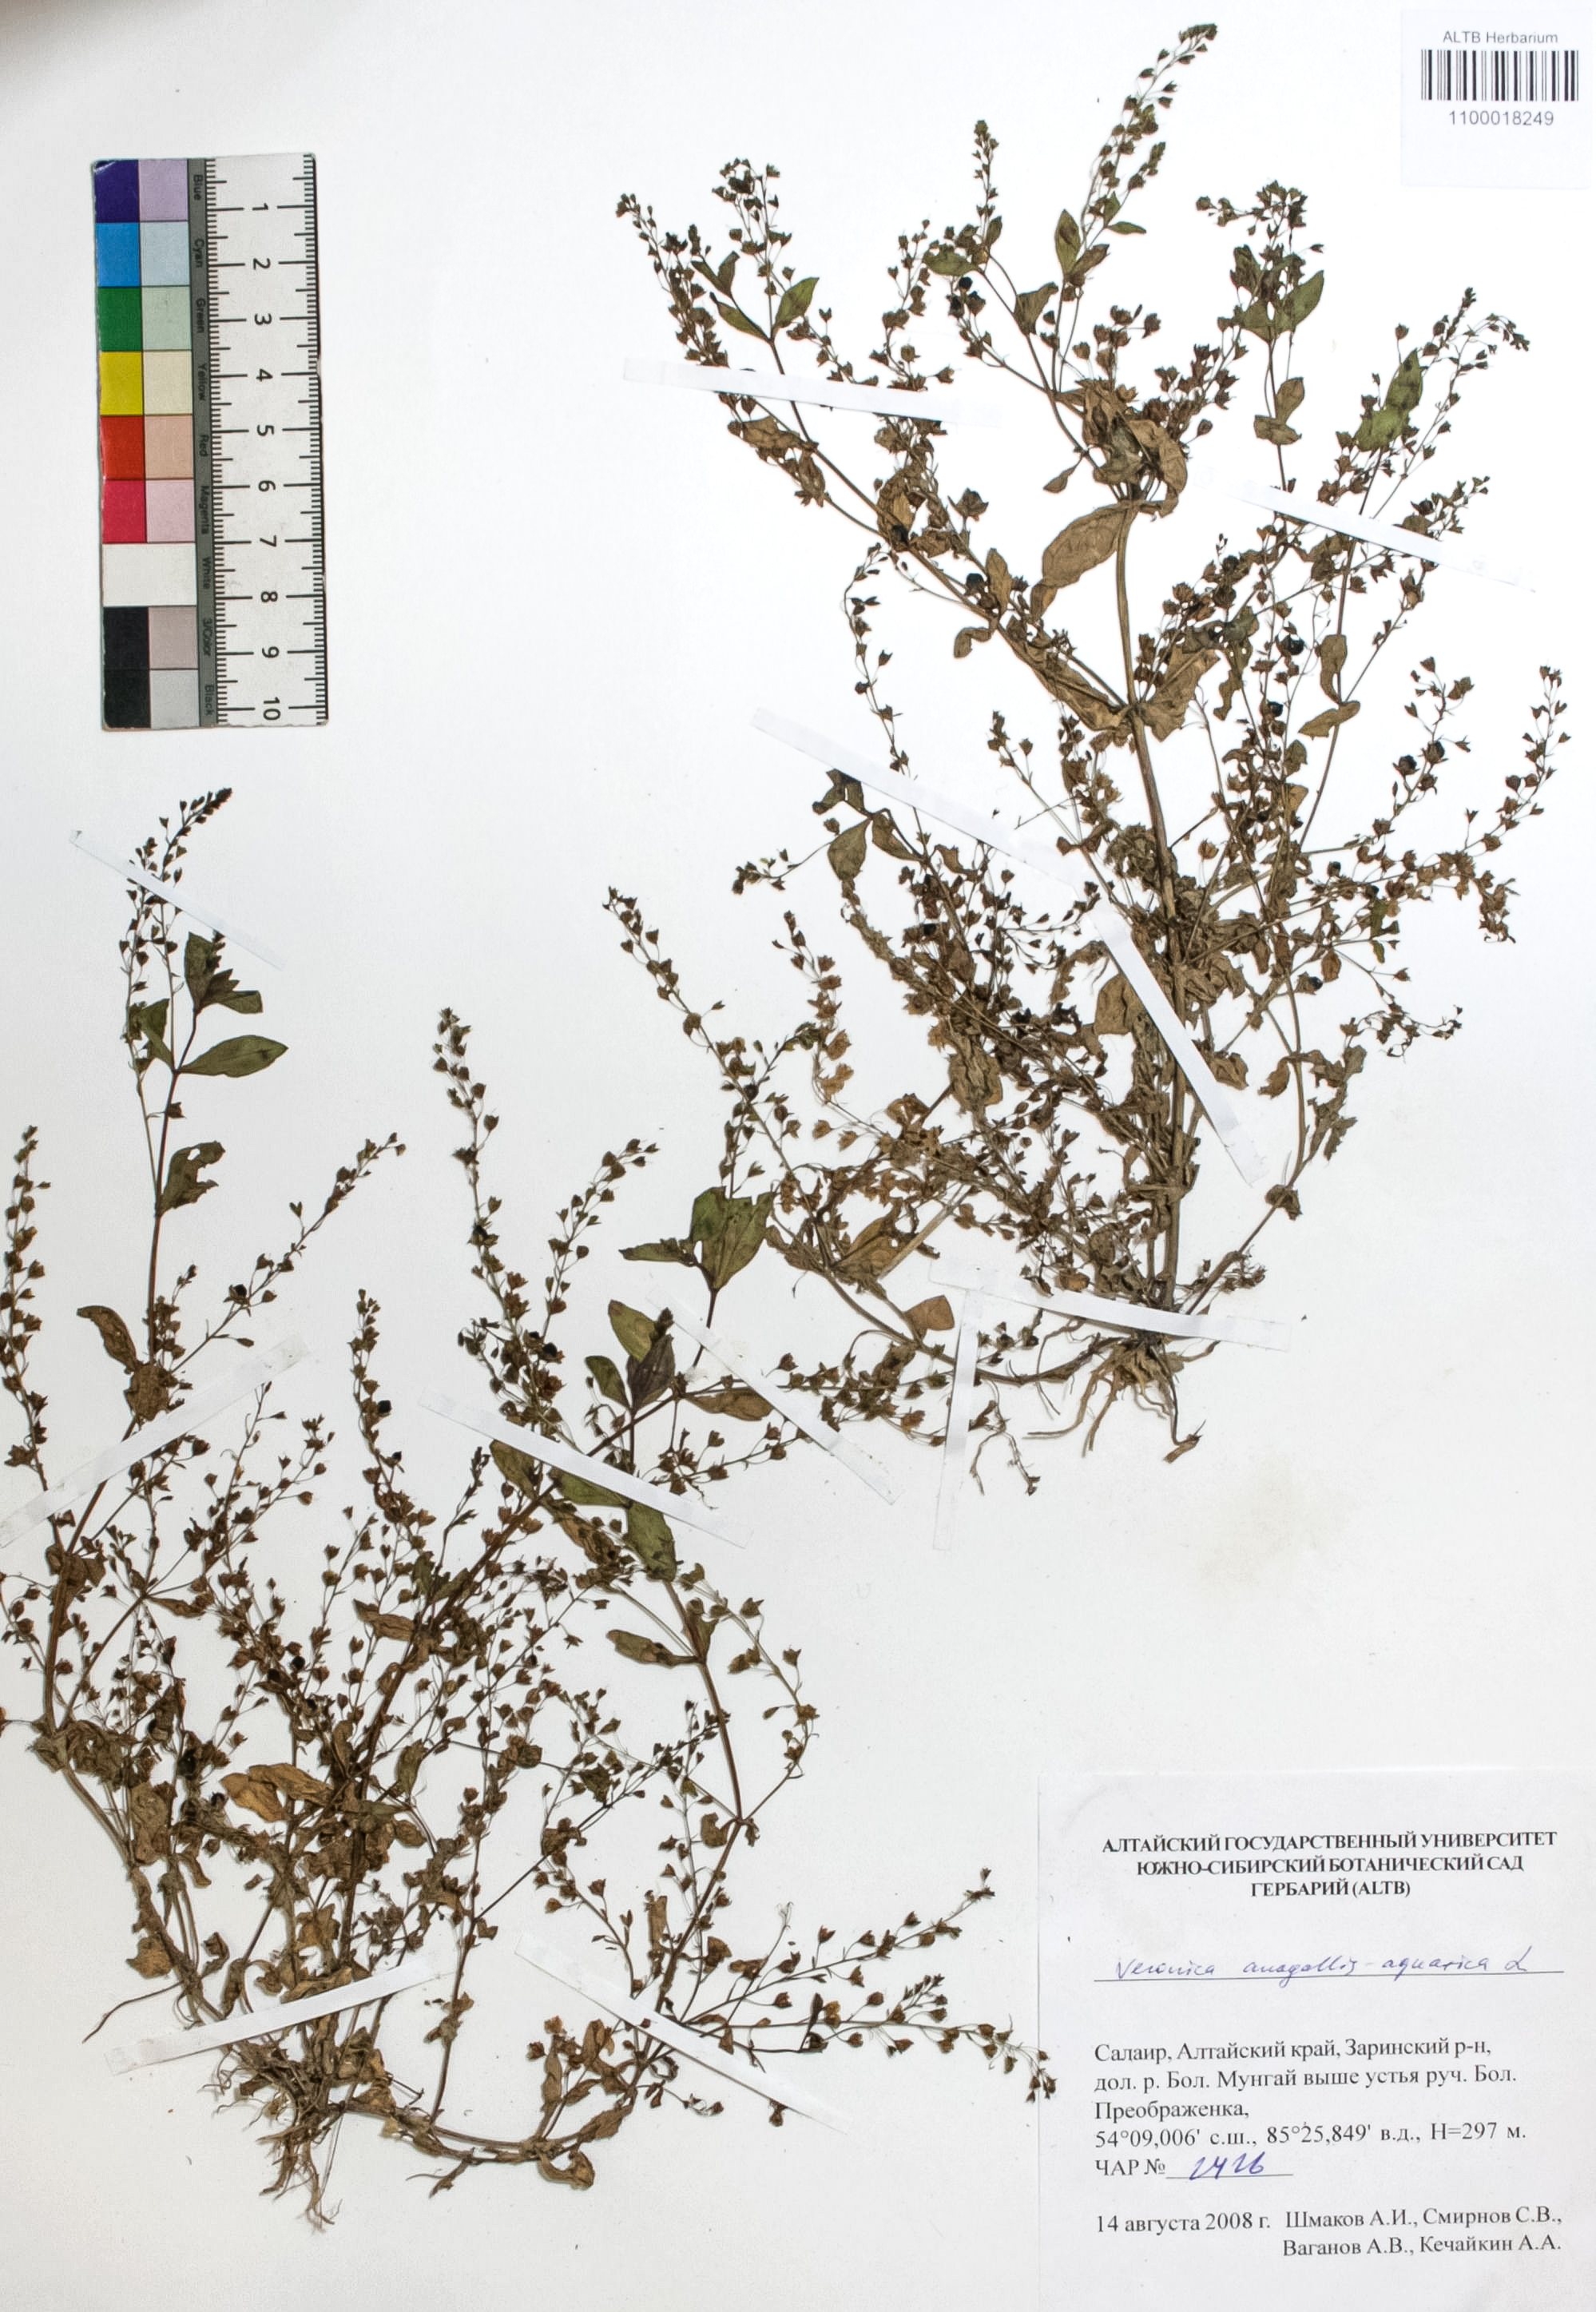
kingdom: Plantae
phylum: Tracheophyta
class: Magnoliopsida
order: Lamiales
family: Plantaginaceae
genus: Veronica
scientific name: Veronica anagallis-aquatica
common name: Water speedwell
